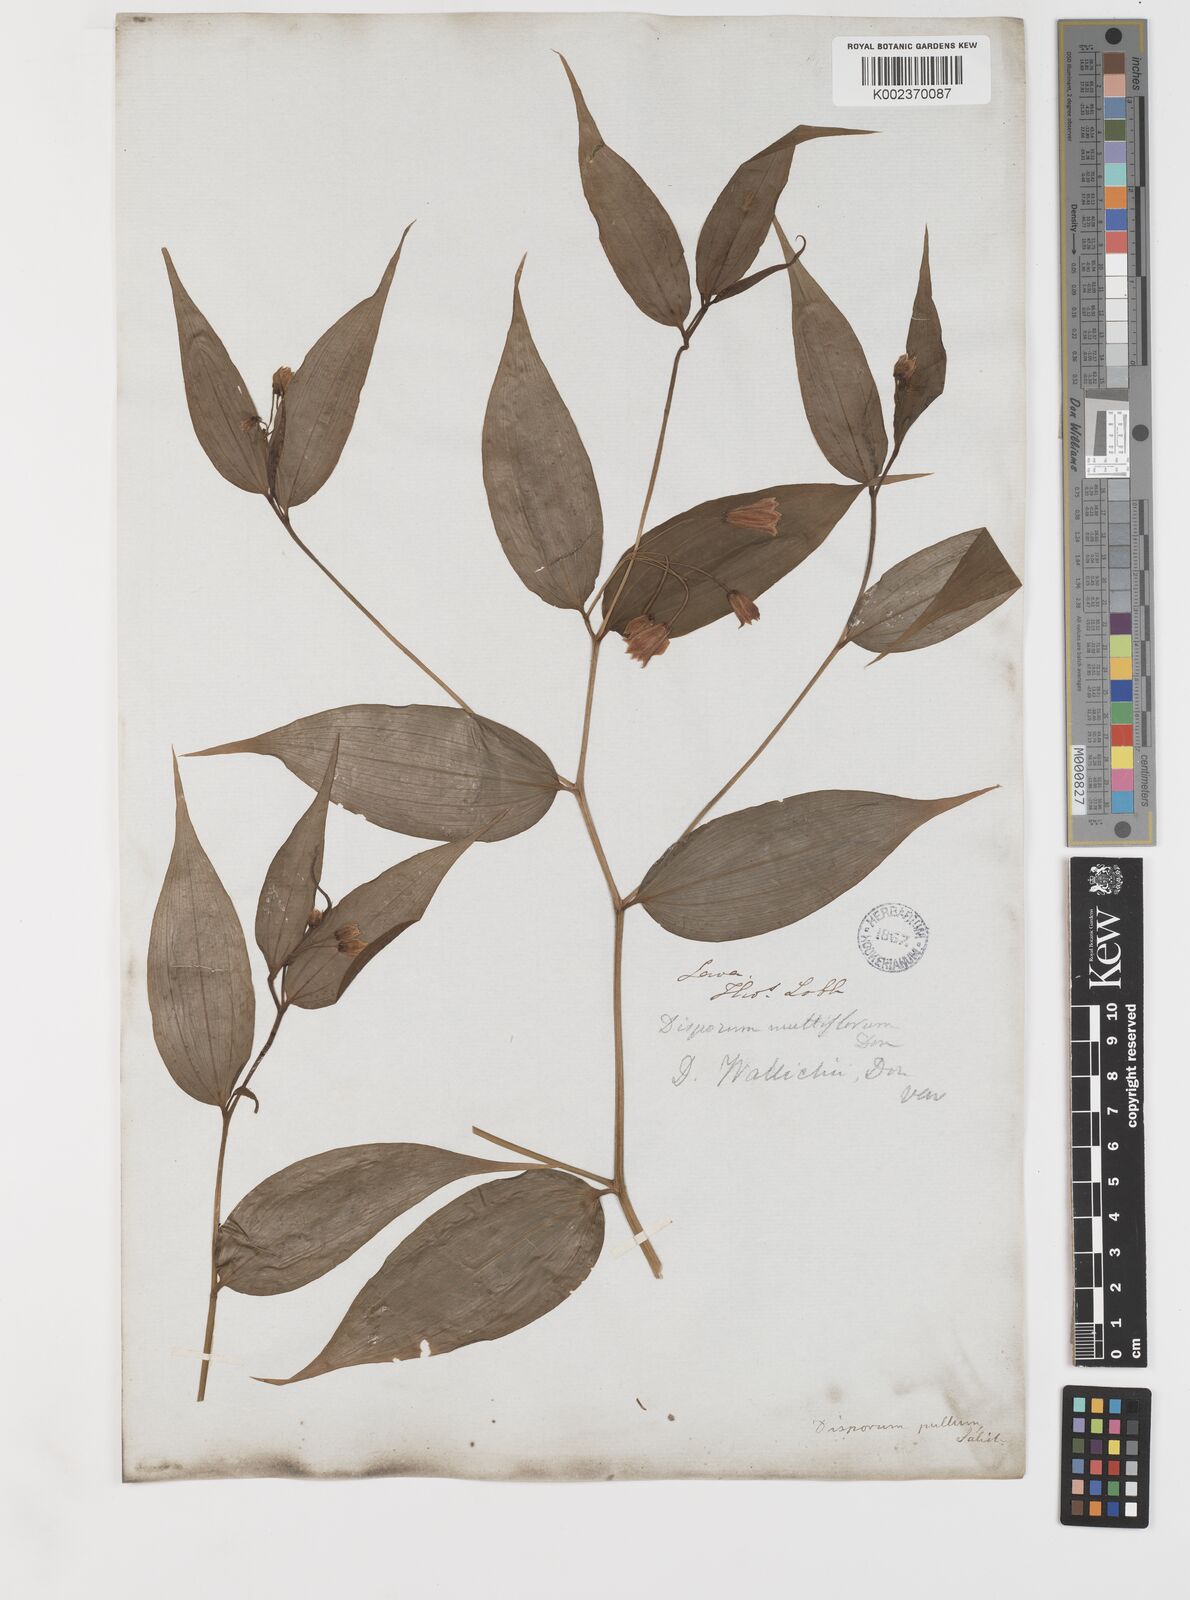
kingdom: Plantae
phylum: Tracheophyta
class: Liliopsida
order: Liliales
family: Colchicaceae
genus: Disporum
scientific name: Disporum cantoniense
